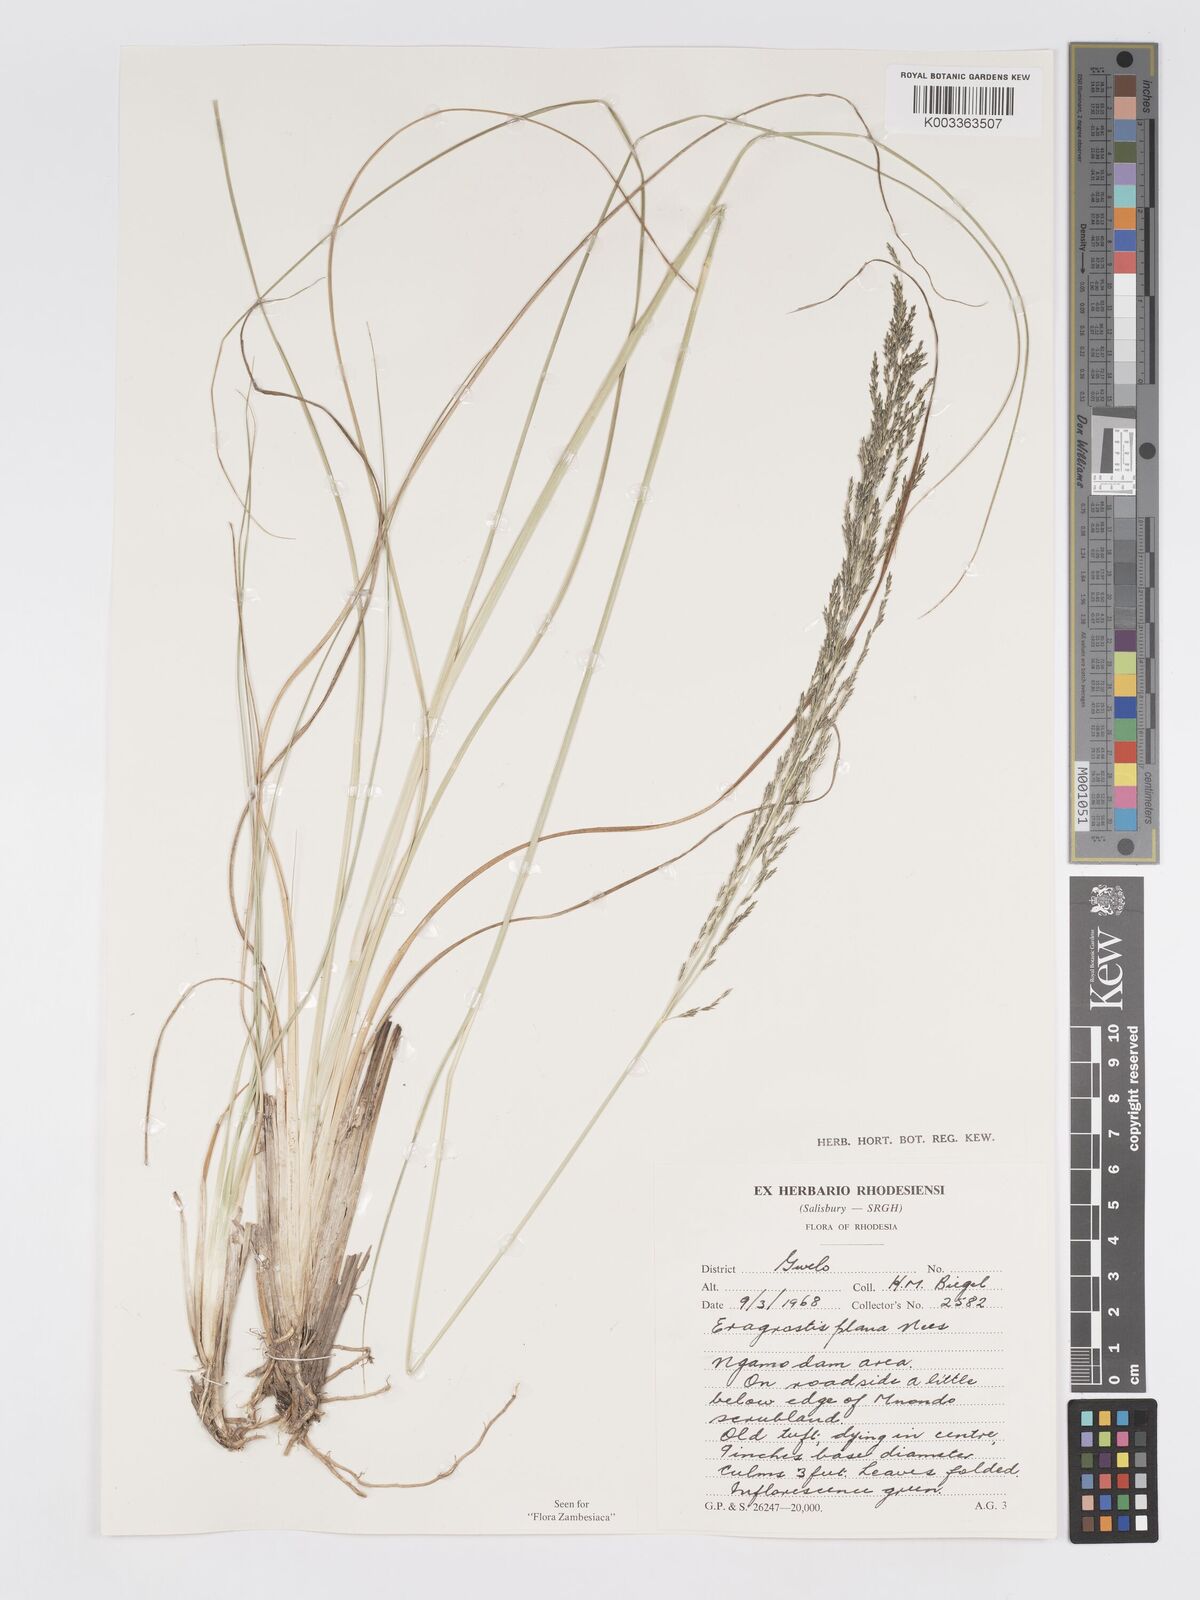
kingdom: Plantae
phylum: Tracheophyta
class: Liliopsida
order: Poales
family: Poaceae
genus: Eragrostis
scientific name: Eragrostis plana
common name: South african lovegrass
